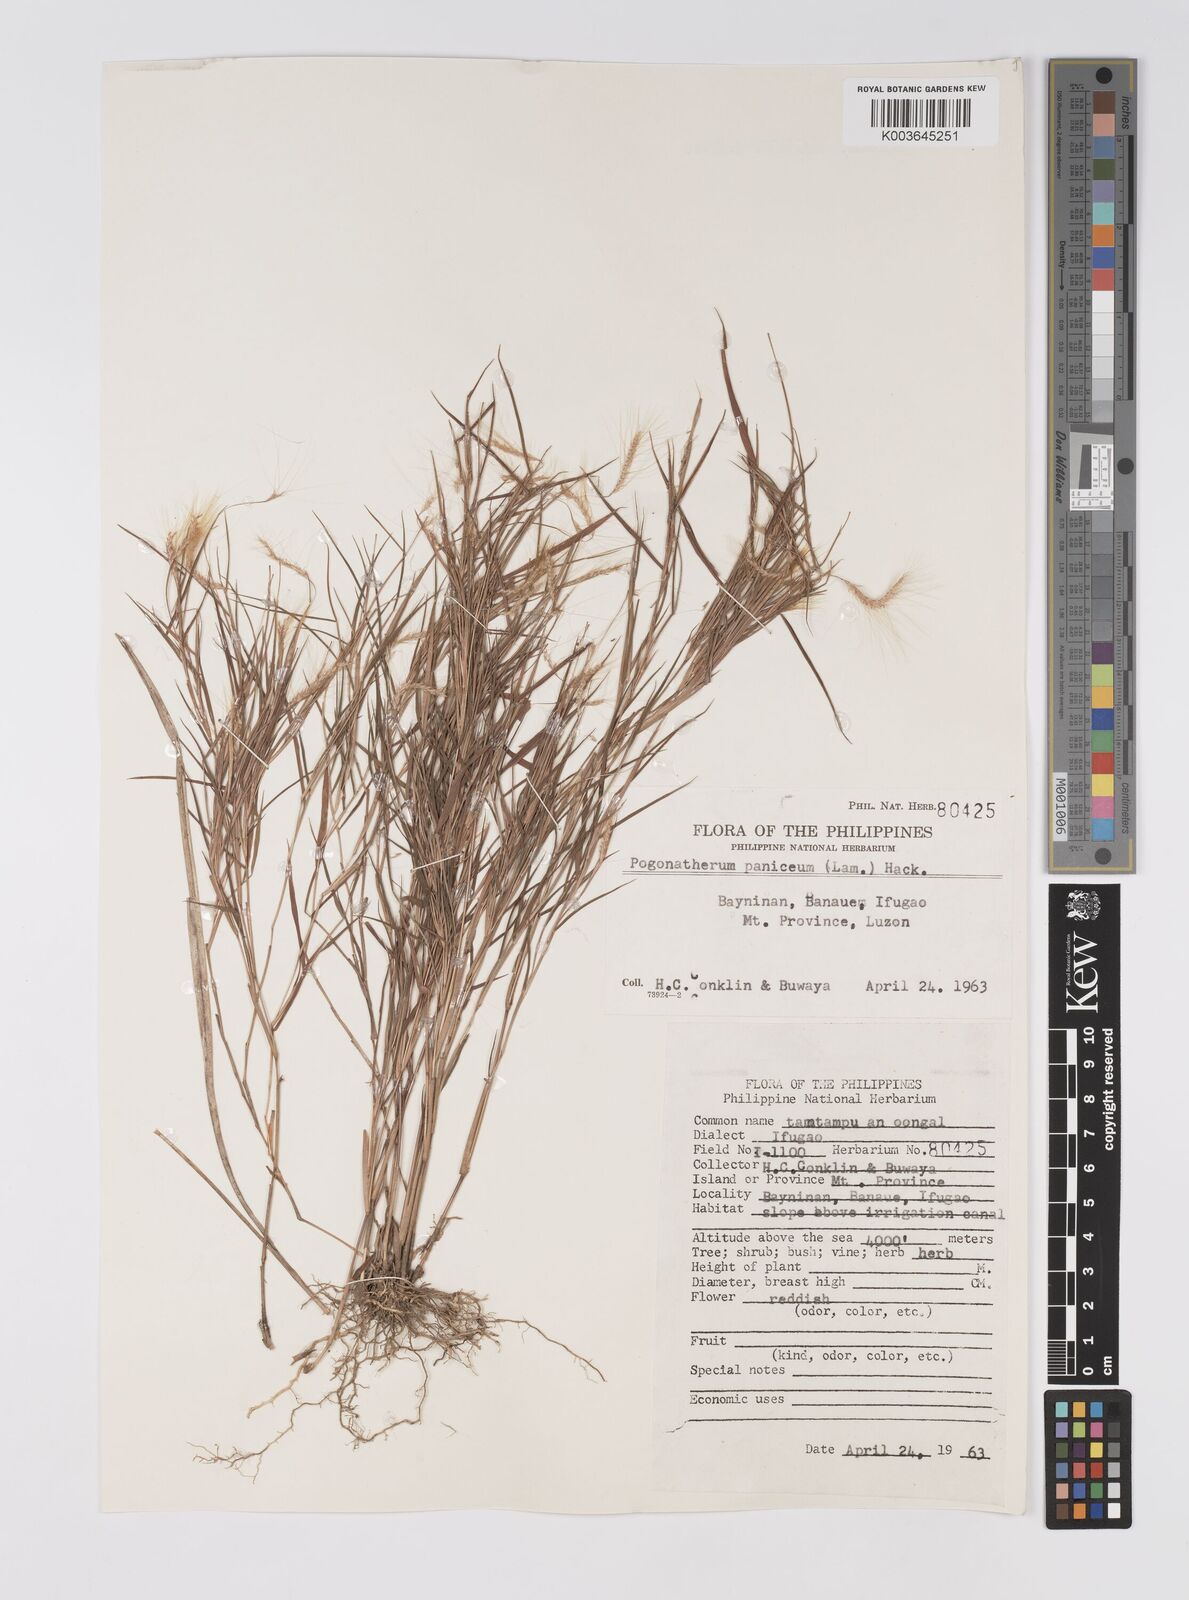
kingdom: Plantae
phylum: Tracheophyta
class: Liliopsida
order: Poales
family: Poaceae
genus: Pogonatherum
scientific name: Pogonatherum paniceum
